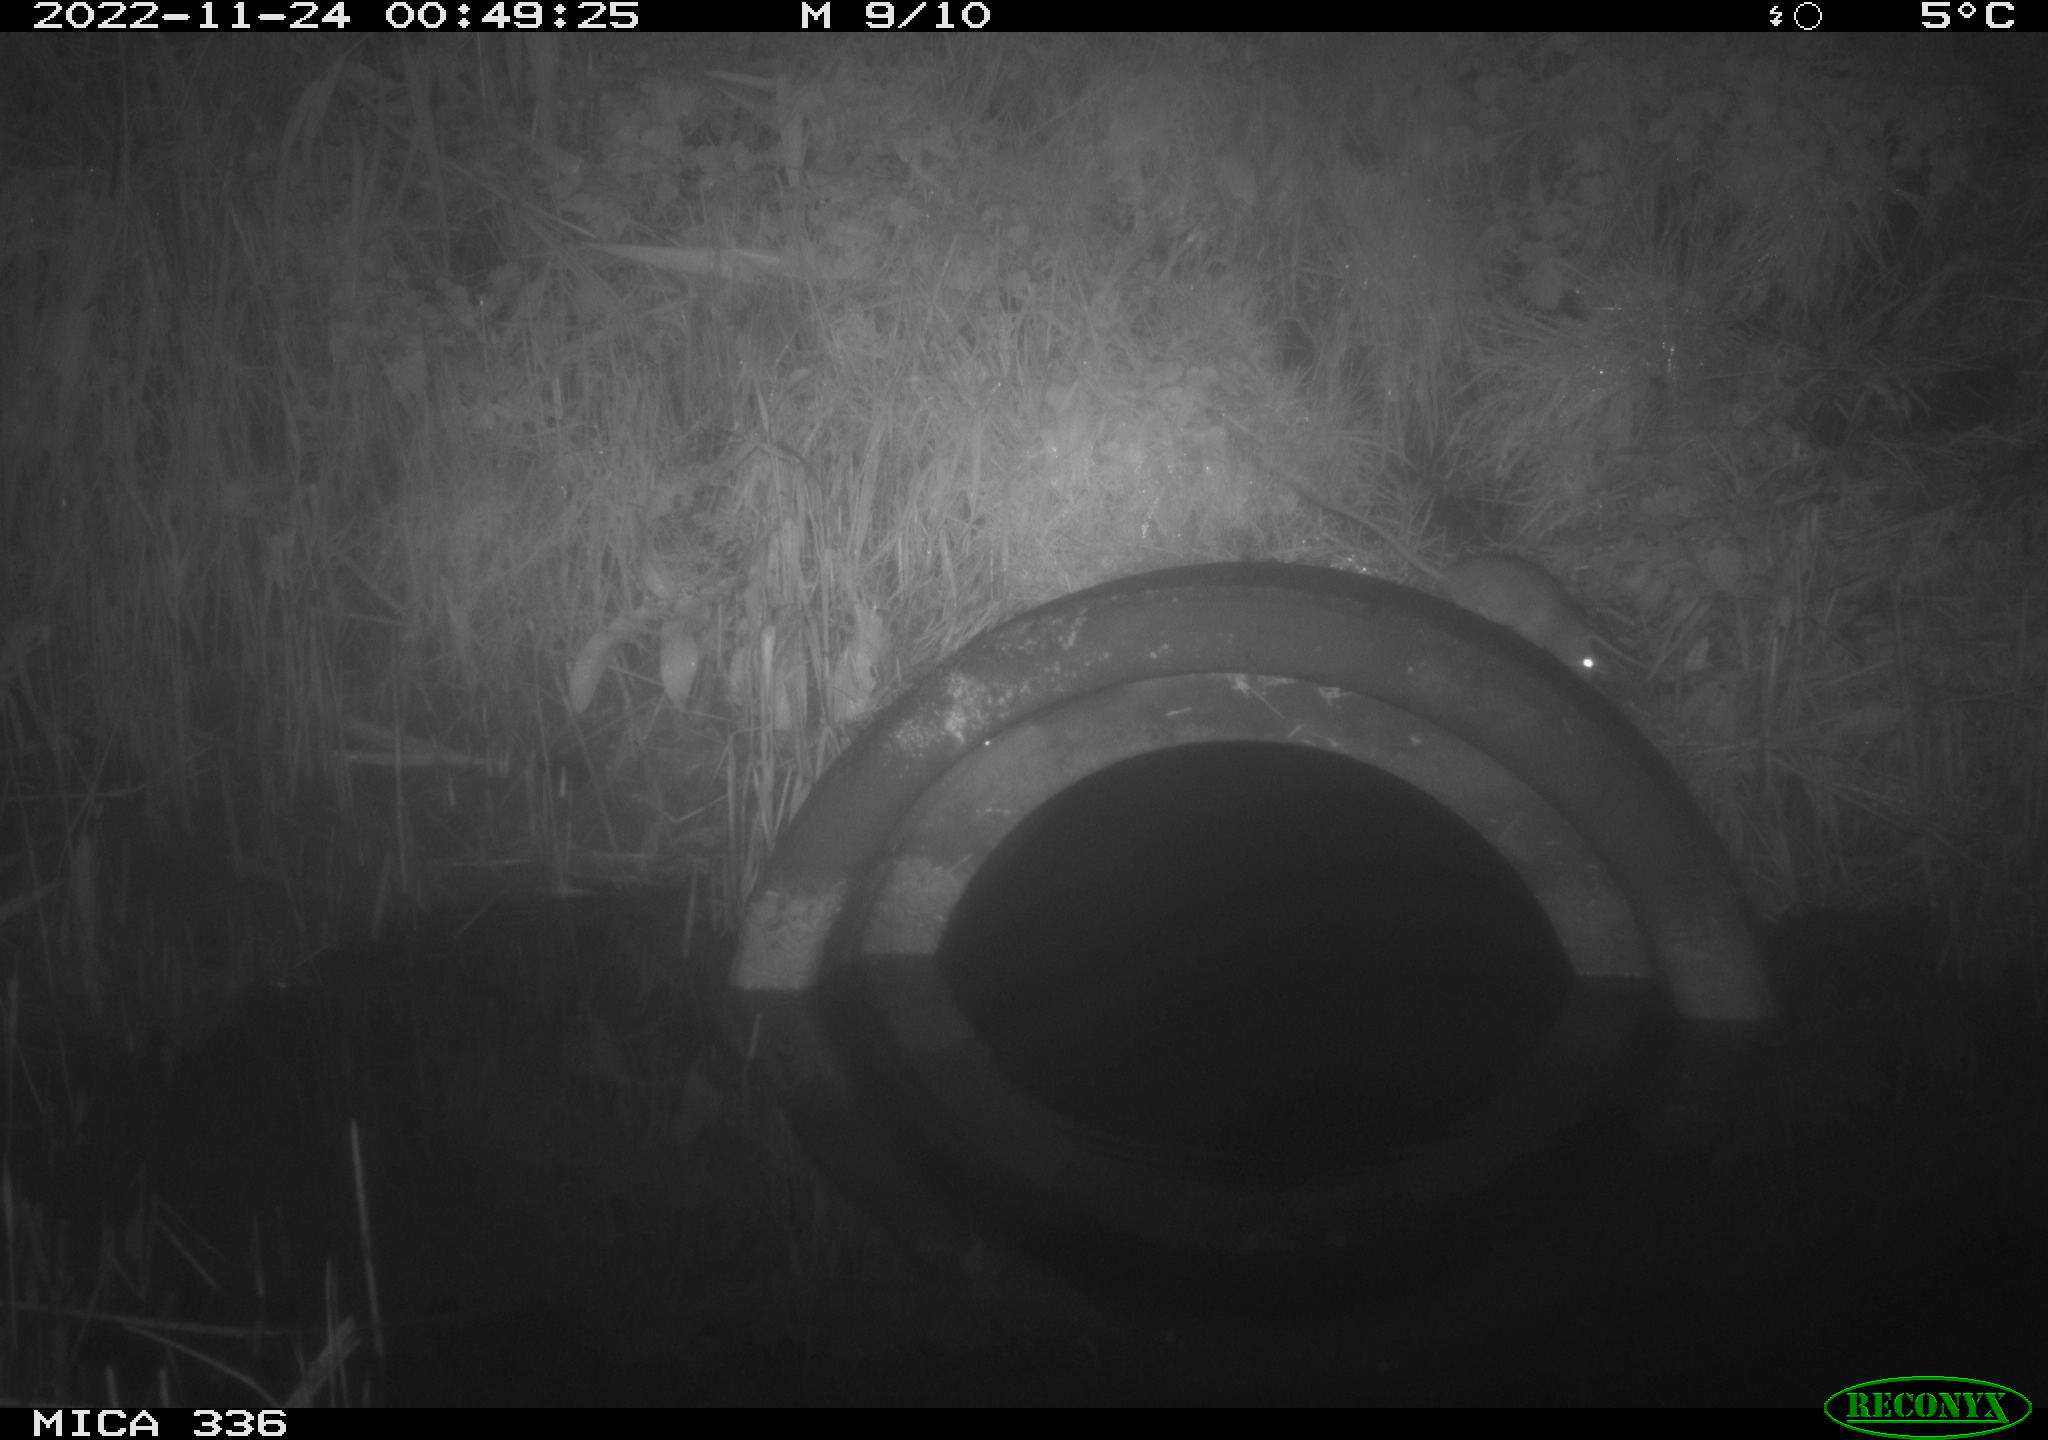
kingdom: Animalia
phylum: Chordata
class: Mammalia
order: Rodentia
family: Muridae
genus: Rattus
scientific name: Rattus norvegicus
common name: Brown rat
